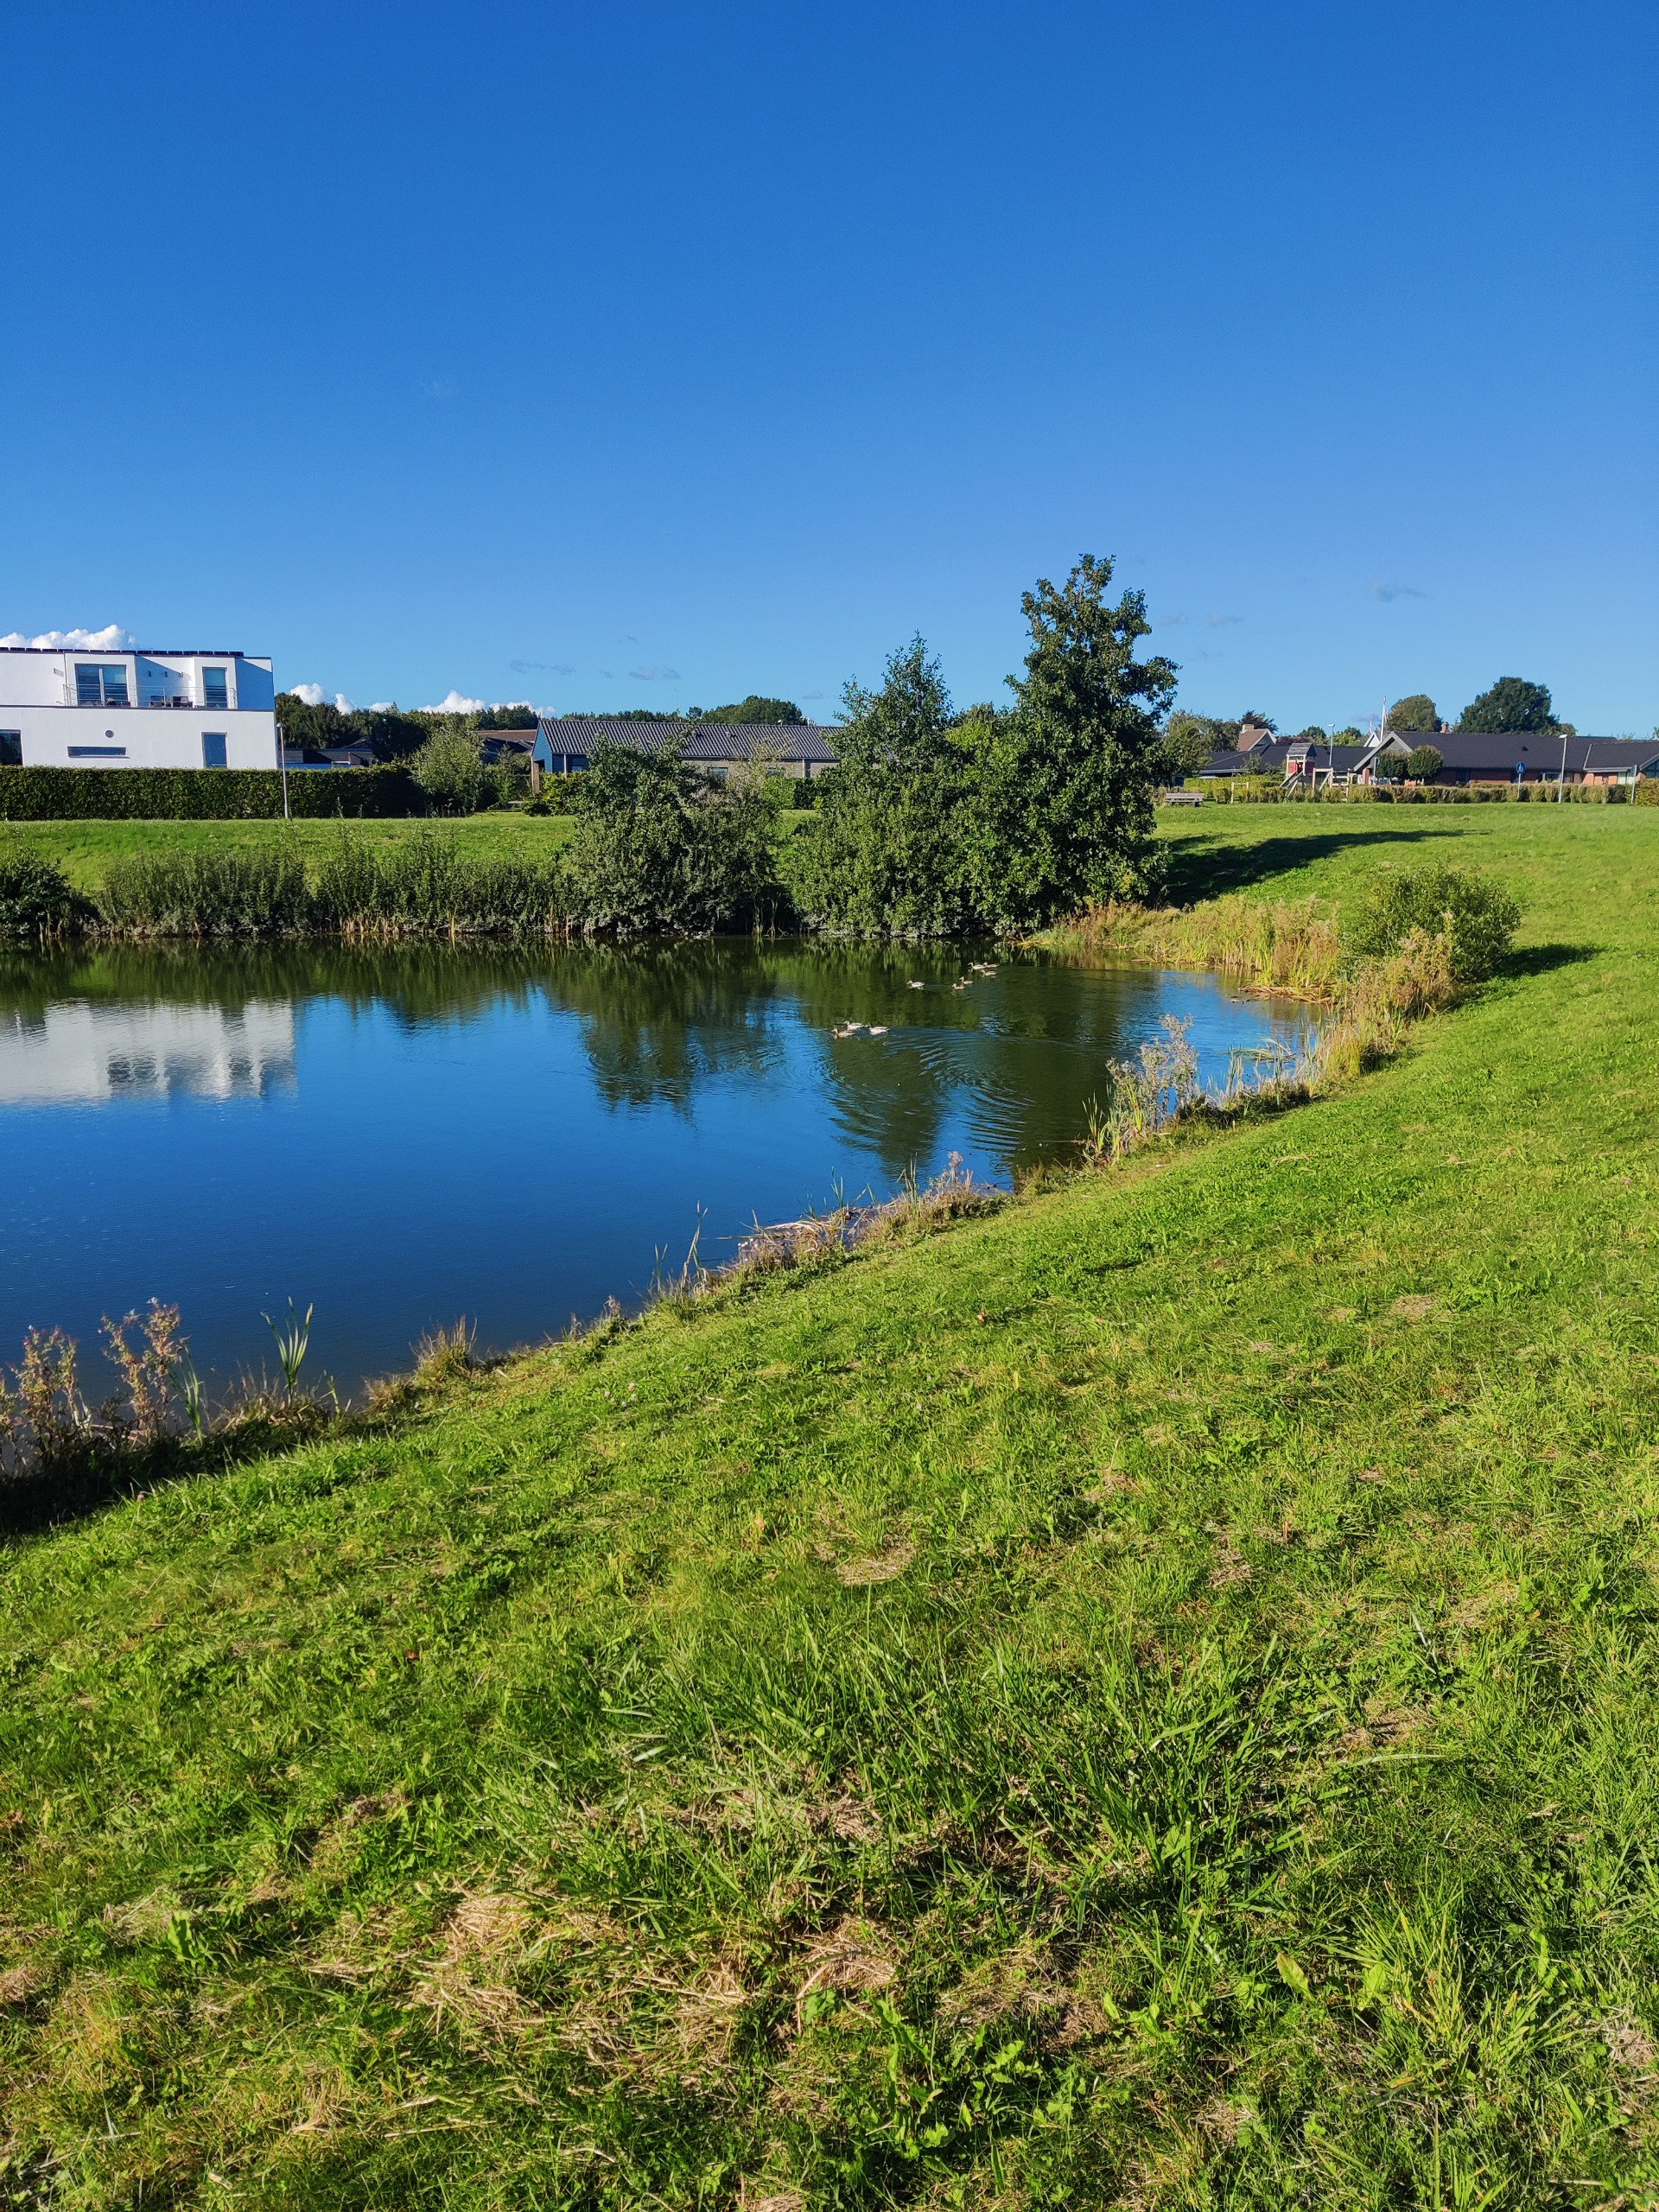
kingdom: Animalia
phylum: Chordata
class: Aves
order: Anseriformes
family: Anatidae
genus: Anas
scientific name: Anas platyrhynchos
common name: Gråand
